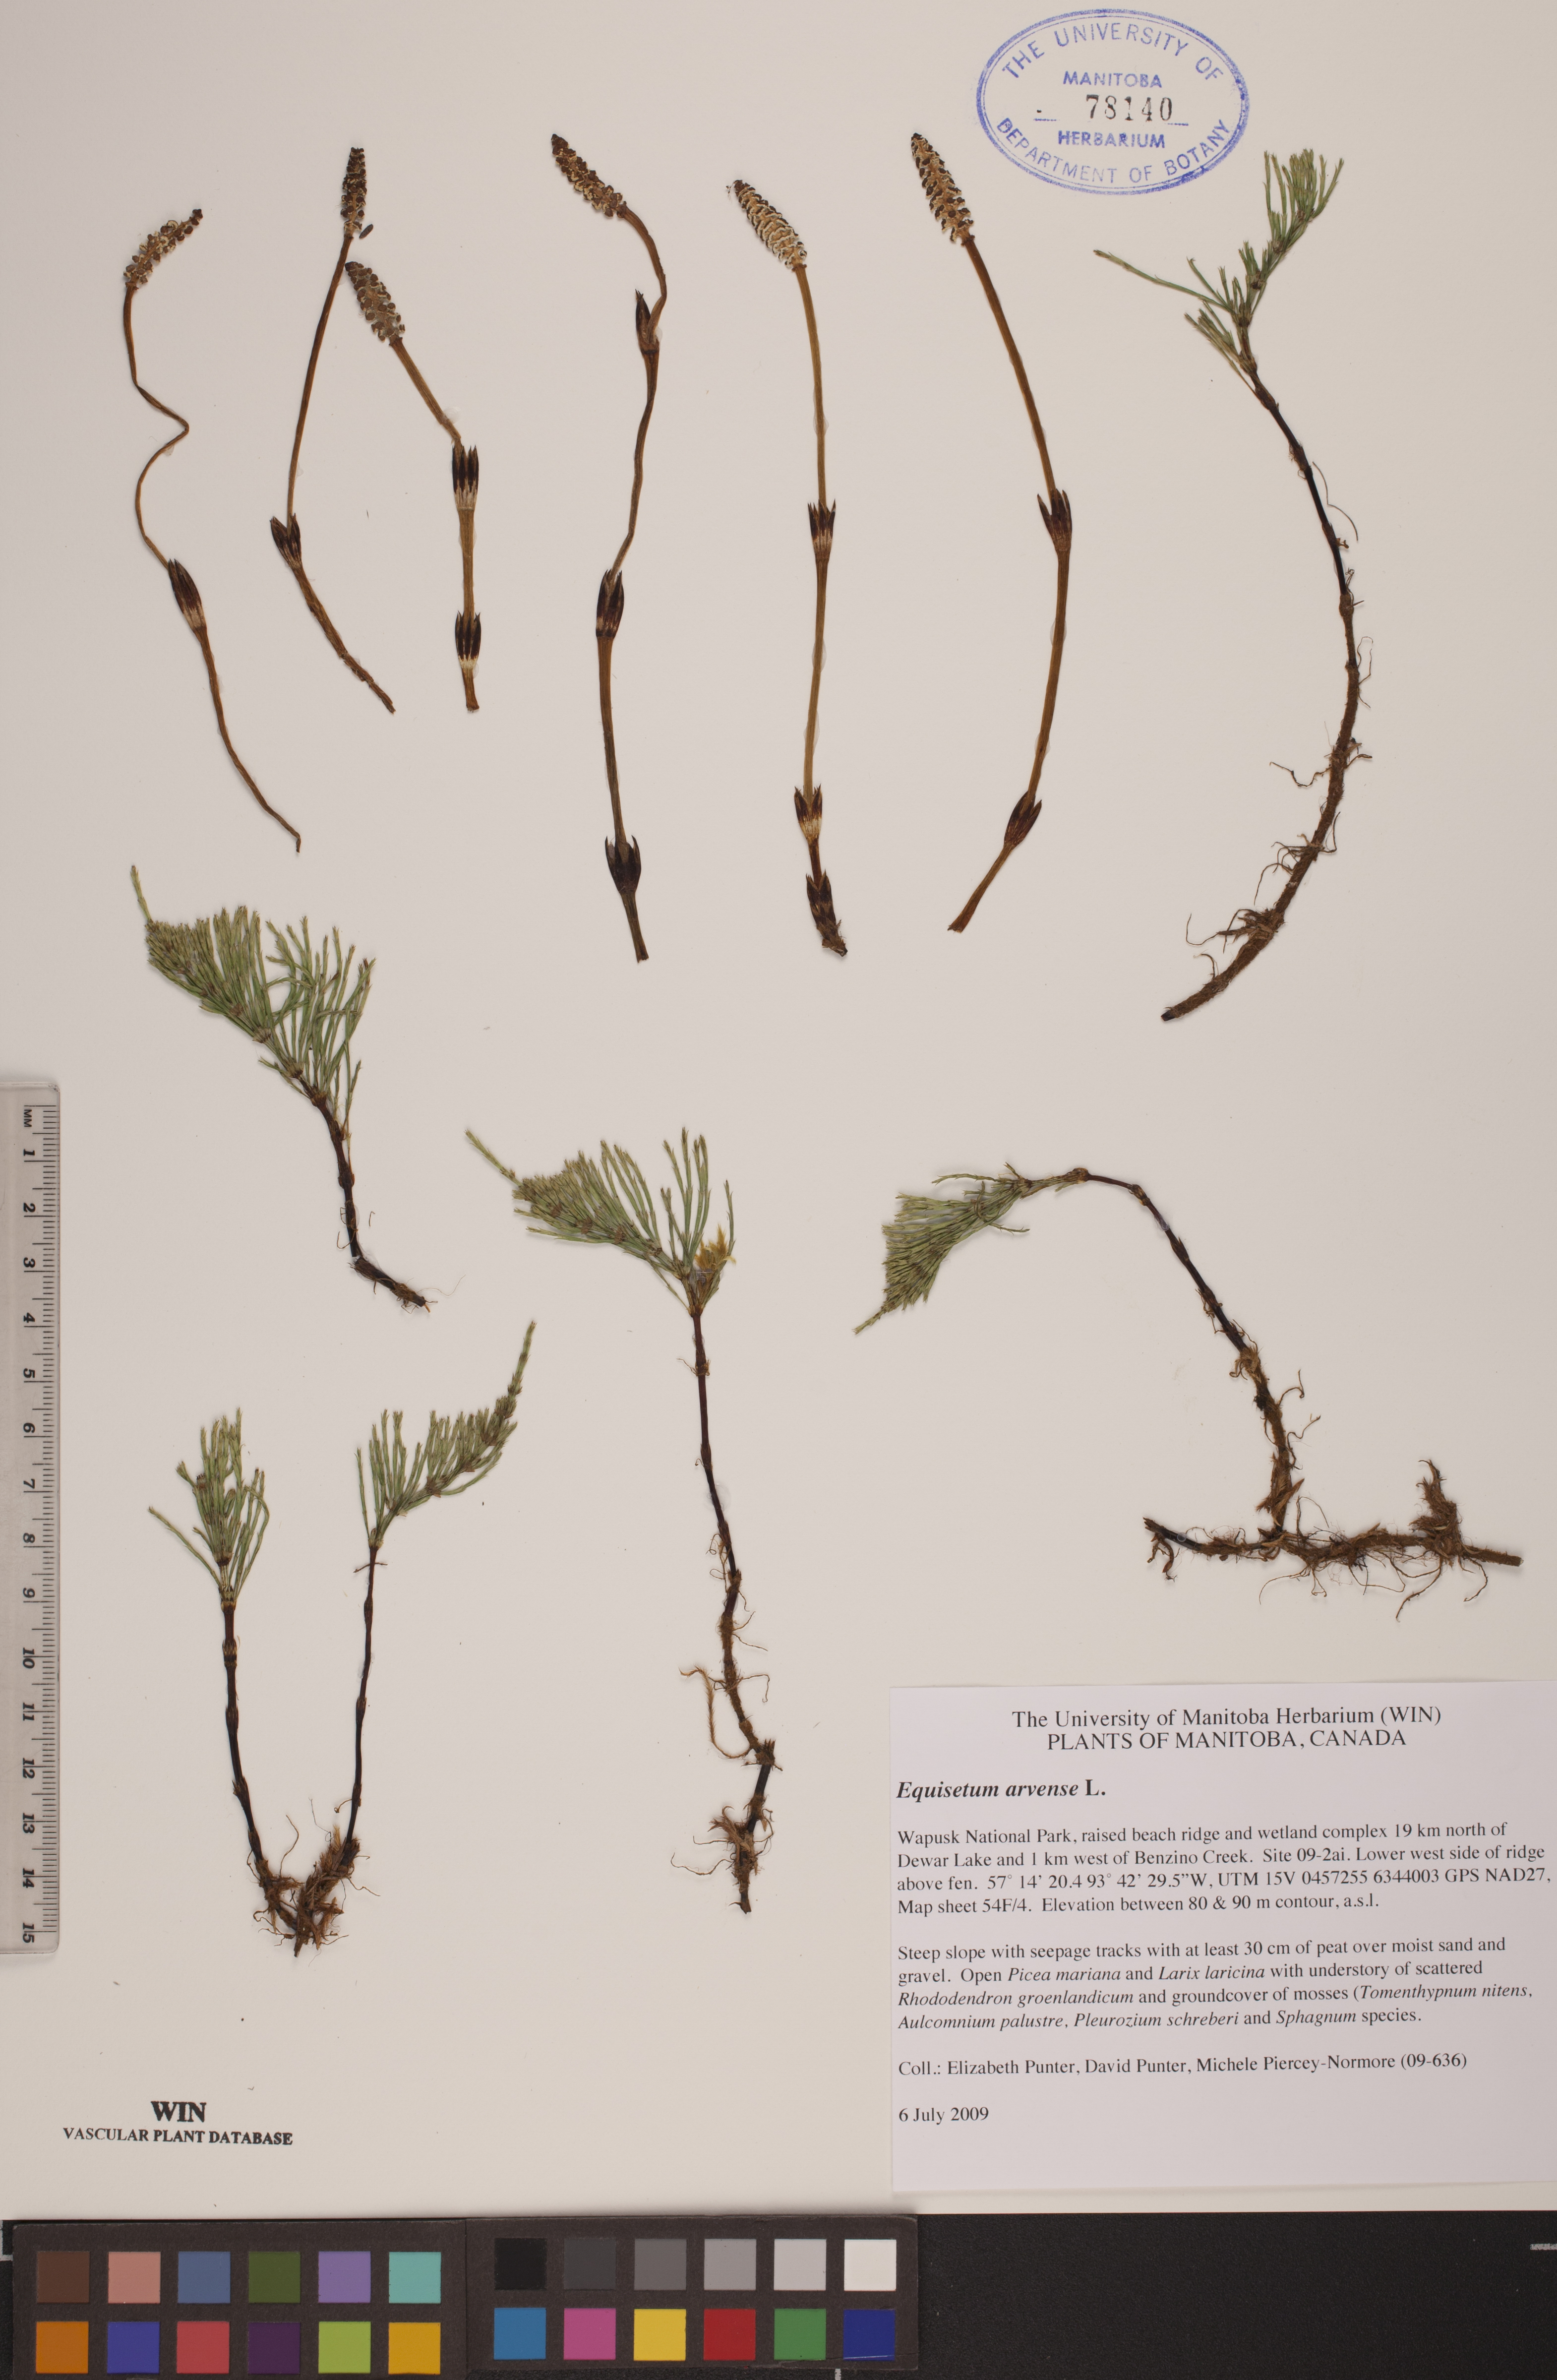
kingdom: Plantae
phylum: Tracheophyta
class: Polypodiopsida
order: Equisetales
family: Equisetaceae
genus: Equisetum
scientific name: Equisetum arvense
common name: Field horsetail
